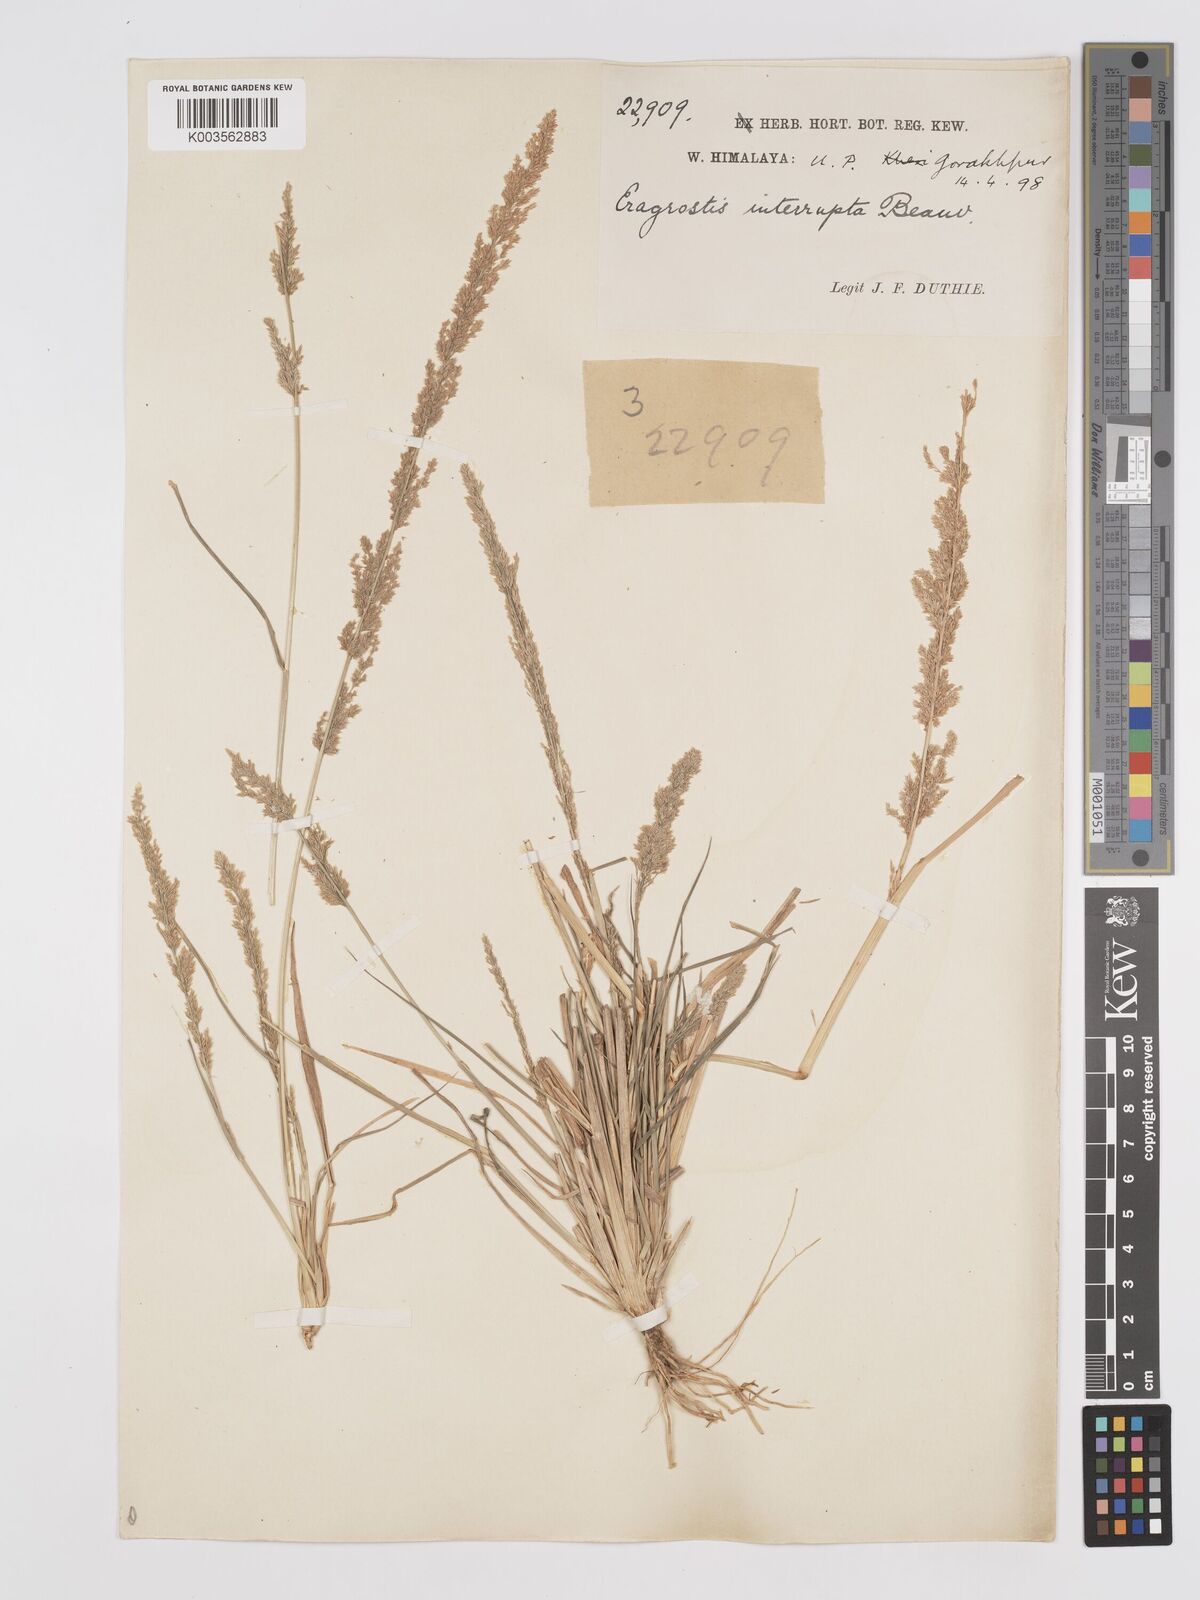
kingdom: Plantae
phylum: Tracheophyta
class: Liliopsida
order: Poales
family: Poaceae
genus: Eragrostis
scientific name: Eragrostis japonica
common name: Pond lovegrass
